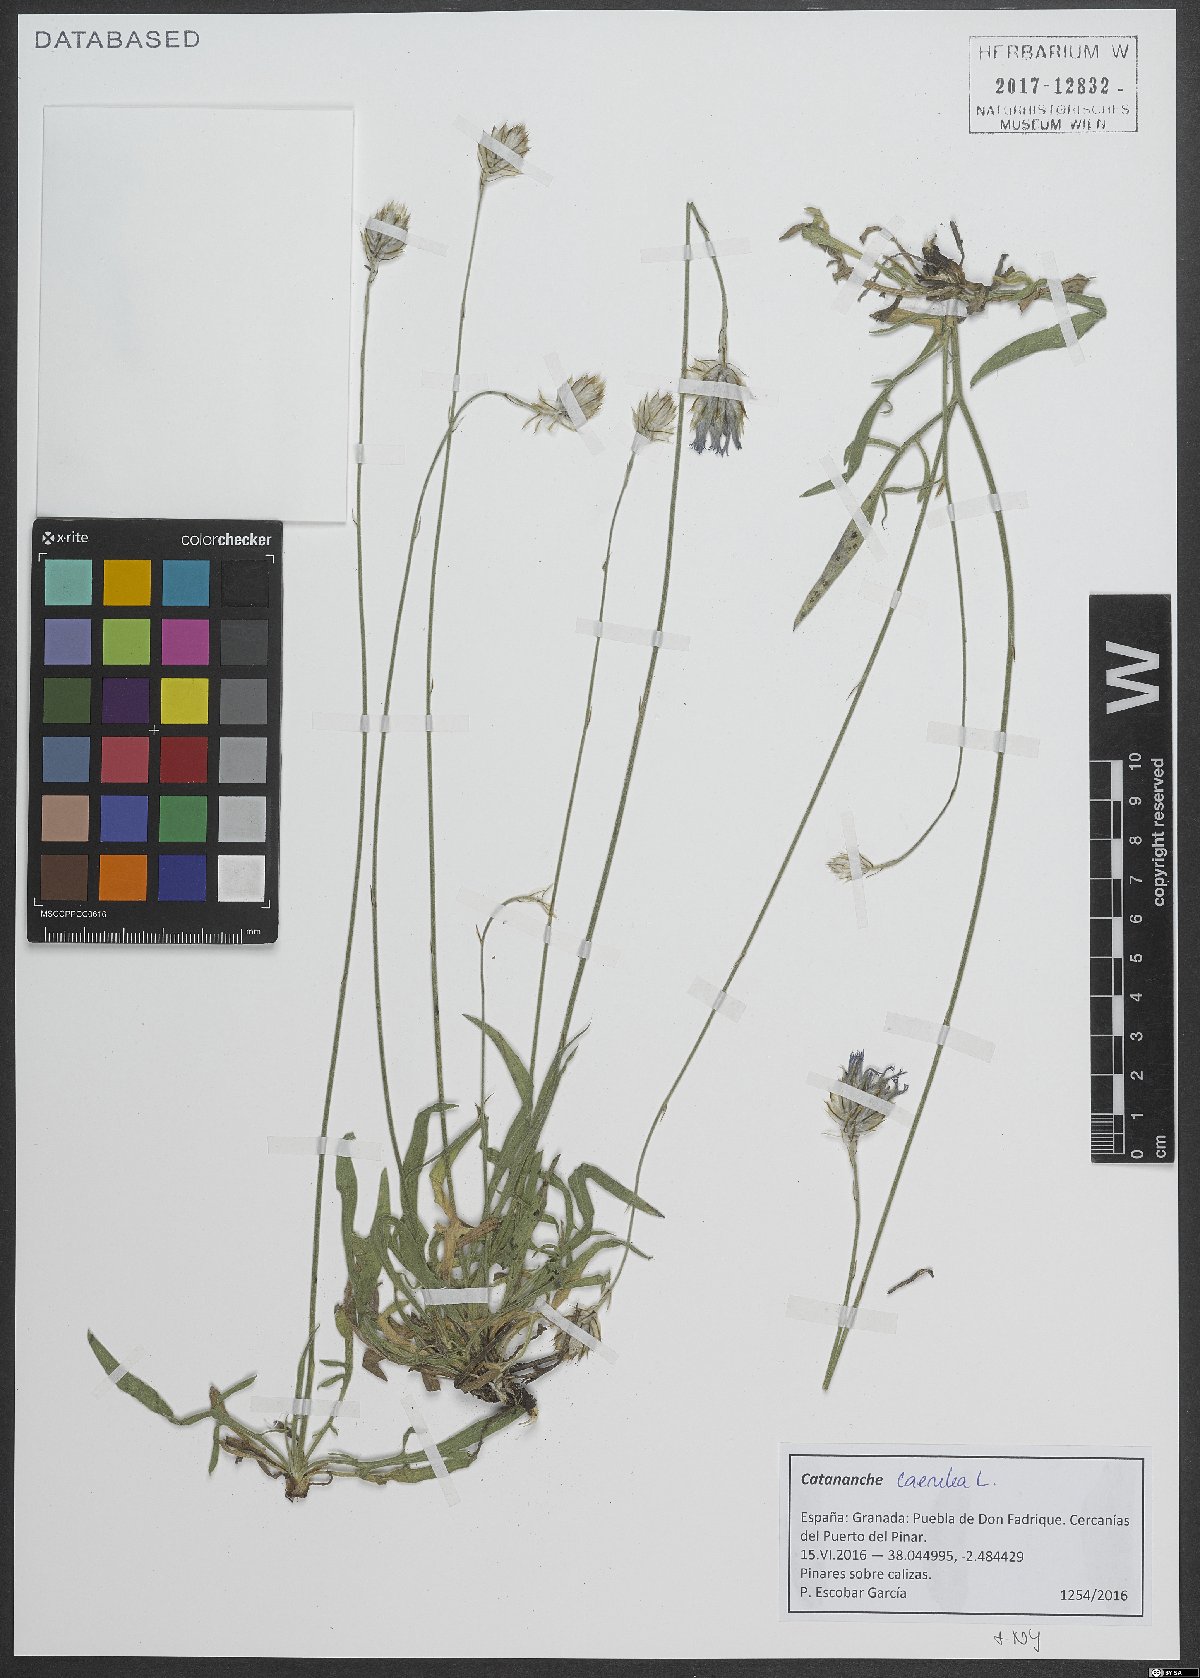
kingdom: Plantae
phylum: Tracheophyta
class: Magnoliopsida
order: Asterales
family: Asteraceae
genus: Catananche
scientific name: Catananche caerulea
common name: Blue cupidone
